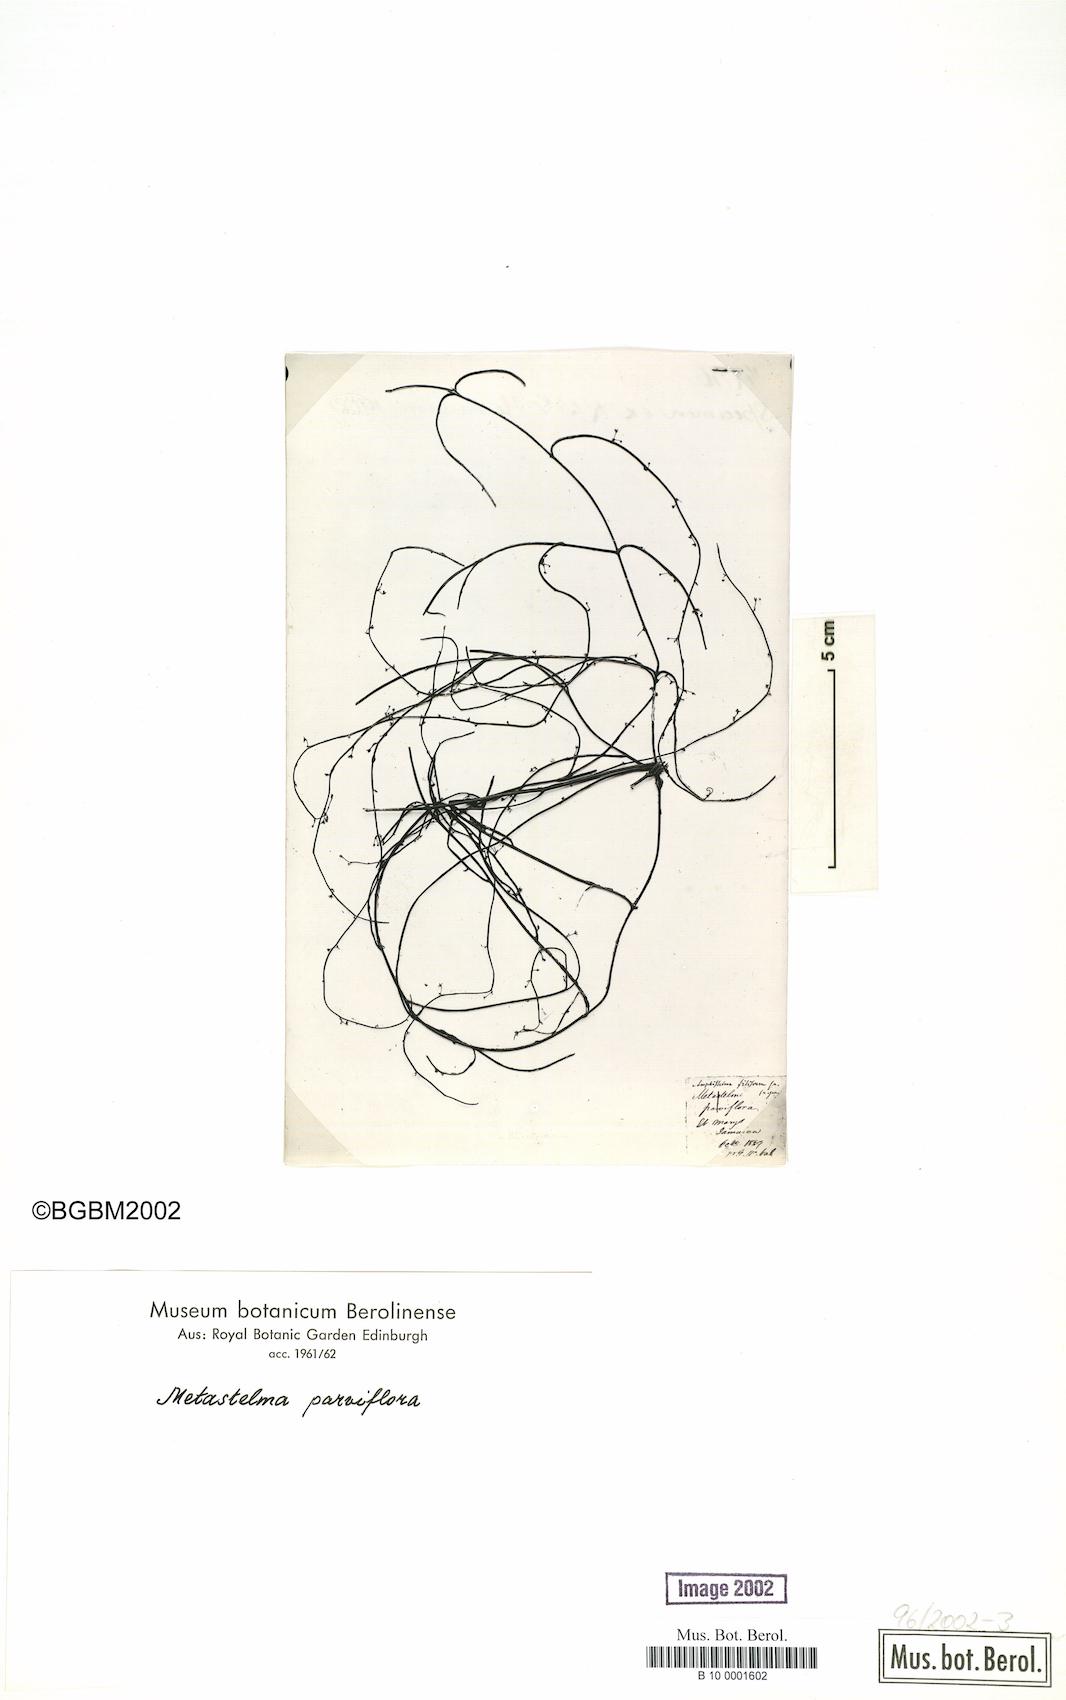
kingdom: Plantae
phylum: Tracheophyta
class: Magnoliopsida
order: Gentianales
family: Apocynaceae
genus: Metastelma
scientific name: Metastelma parviflorum
